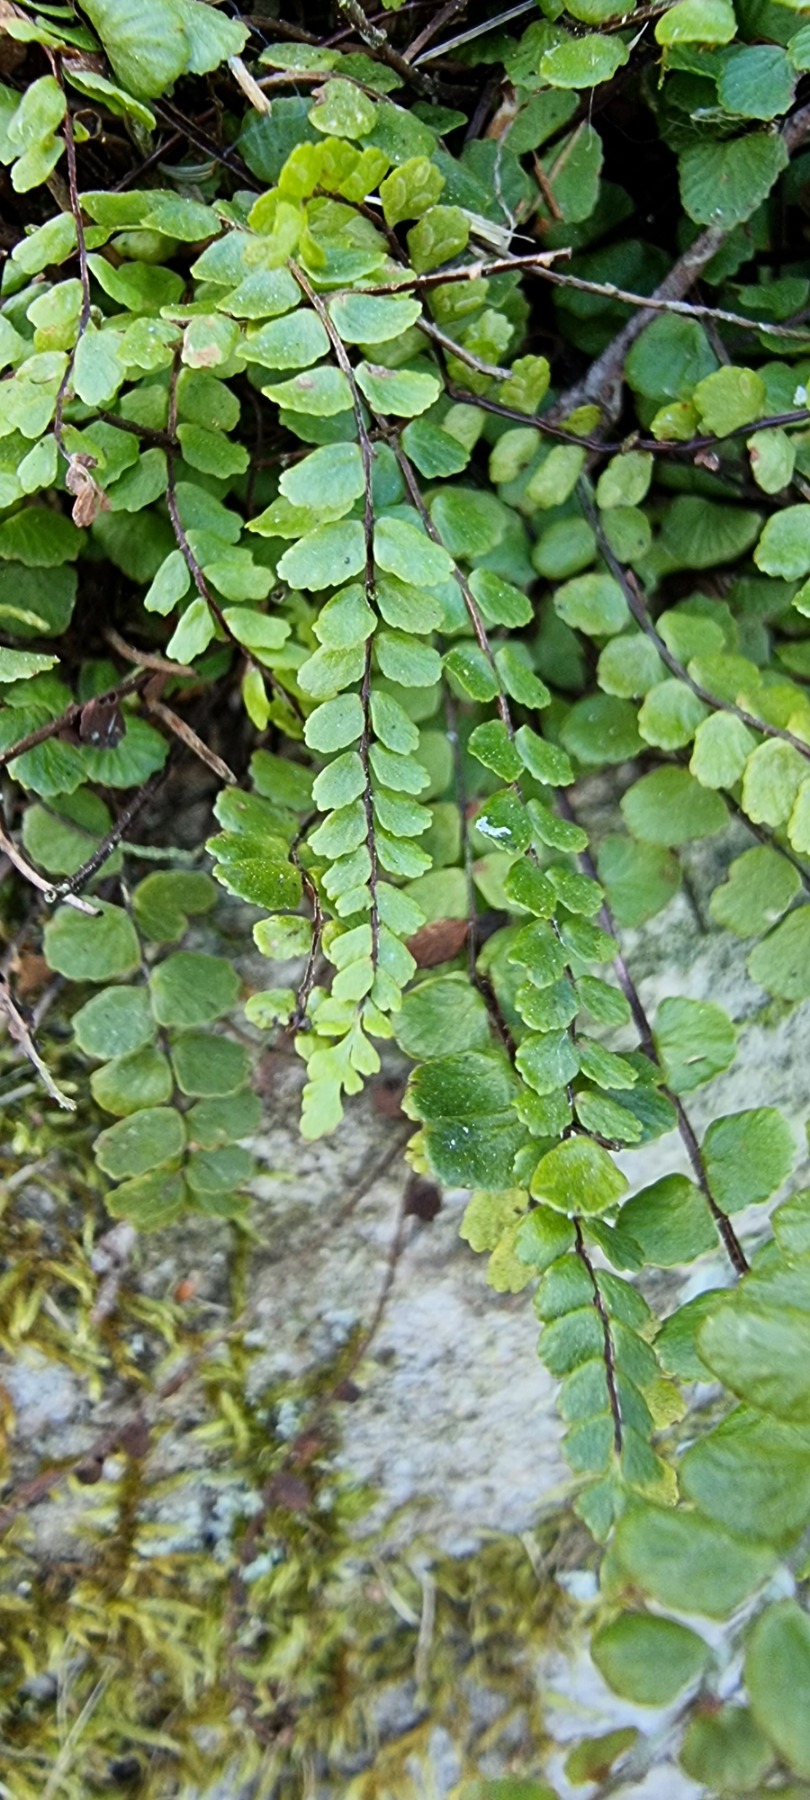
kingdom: Plantae
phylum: Tracheophyta
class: Polypodiopsida
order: Polypodiales
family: Aspleniaceae
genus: Asplenium
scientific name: Asplenium trichomanes
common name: Rundfinnet radeløv
